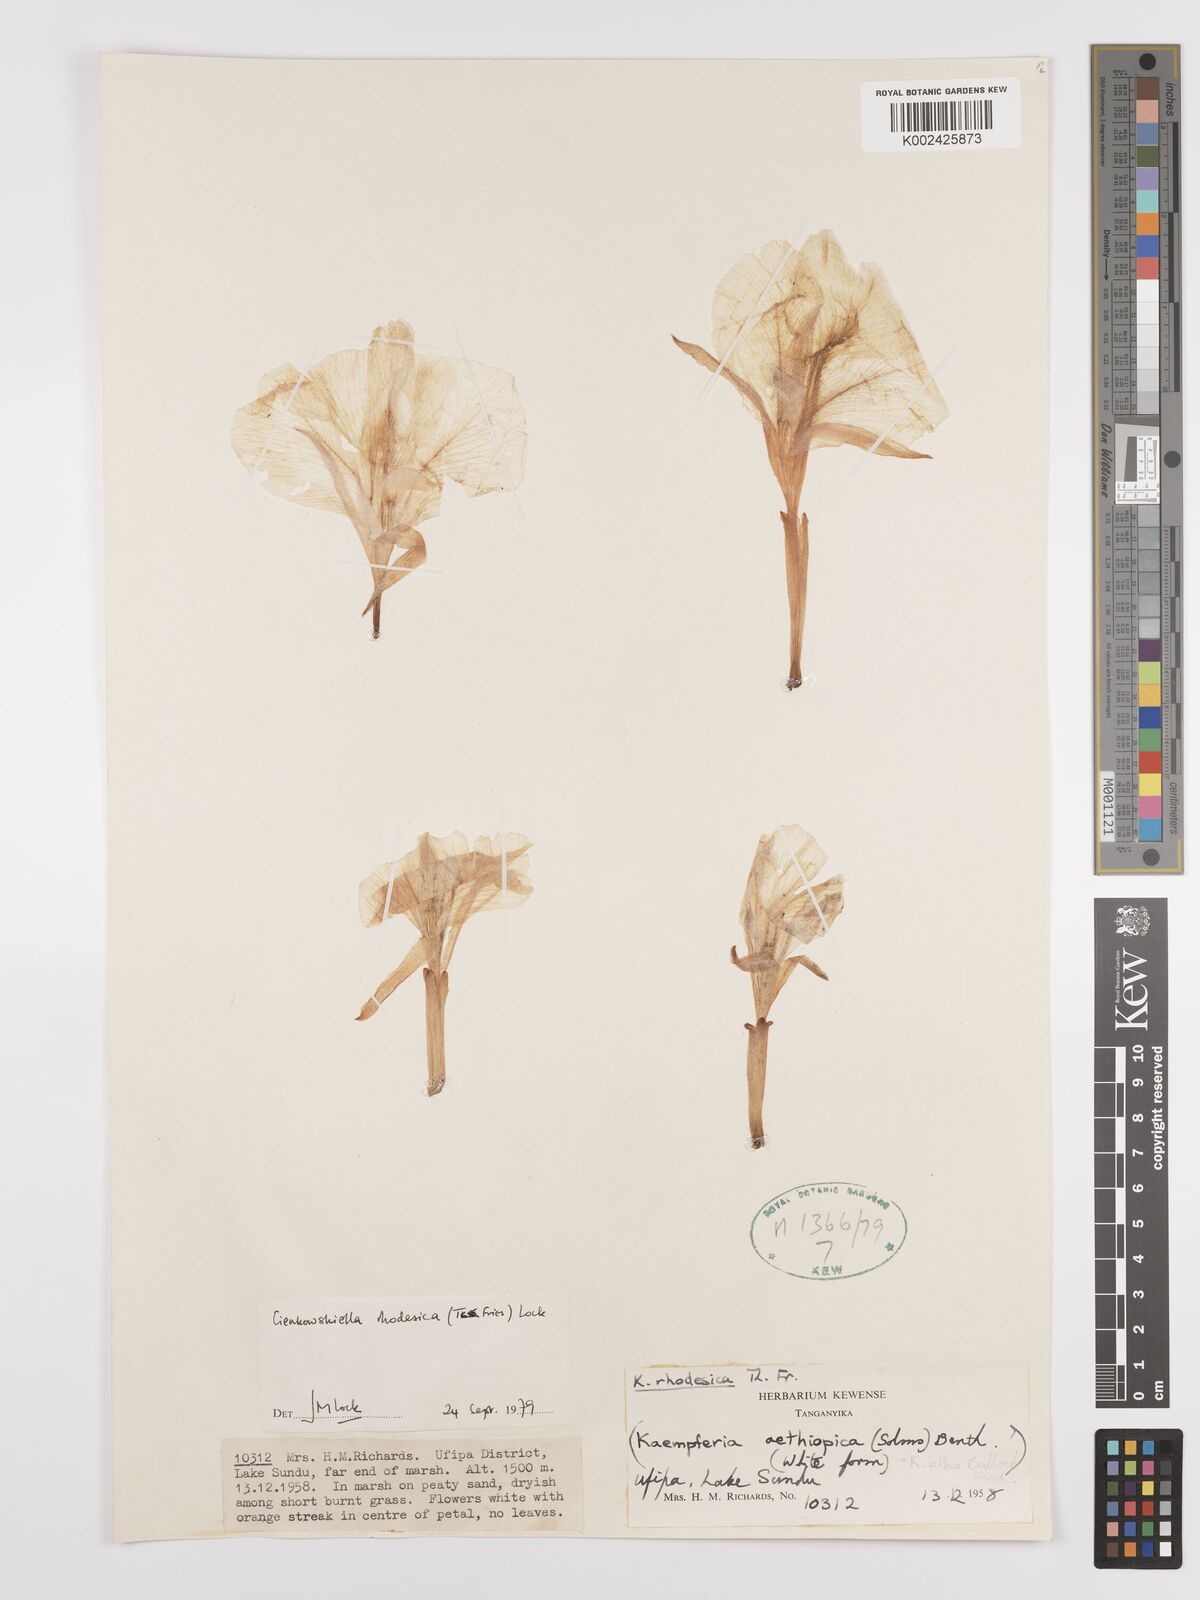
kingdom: Plantae
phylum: Tracheophyta
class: Liliopsida
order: Zingiberales
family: Zingiberaceae
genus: Siphonochilus
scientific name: Siphonochilus rhodesicus
